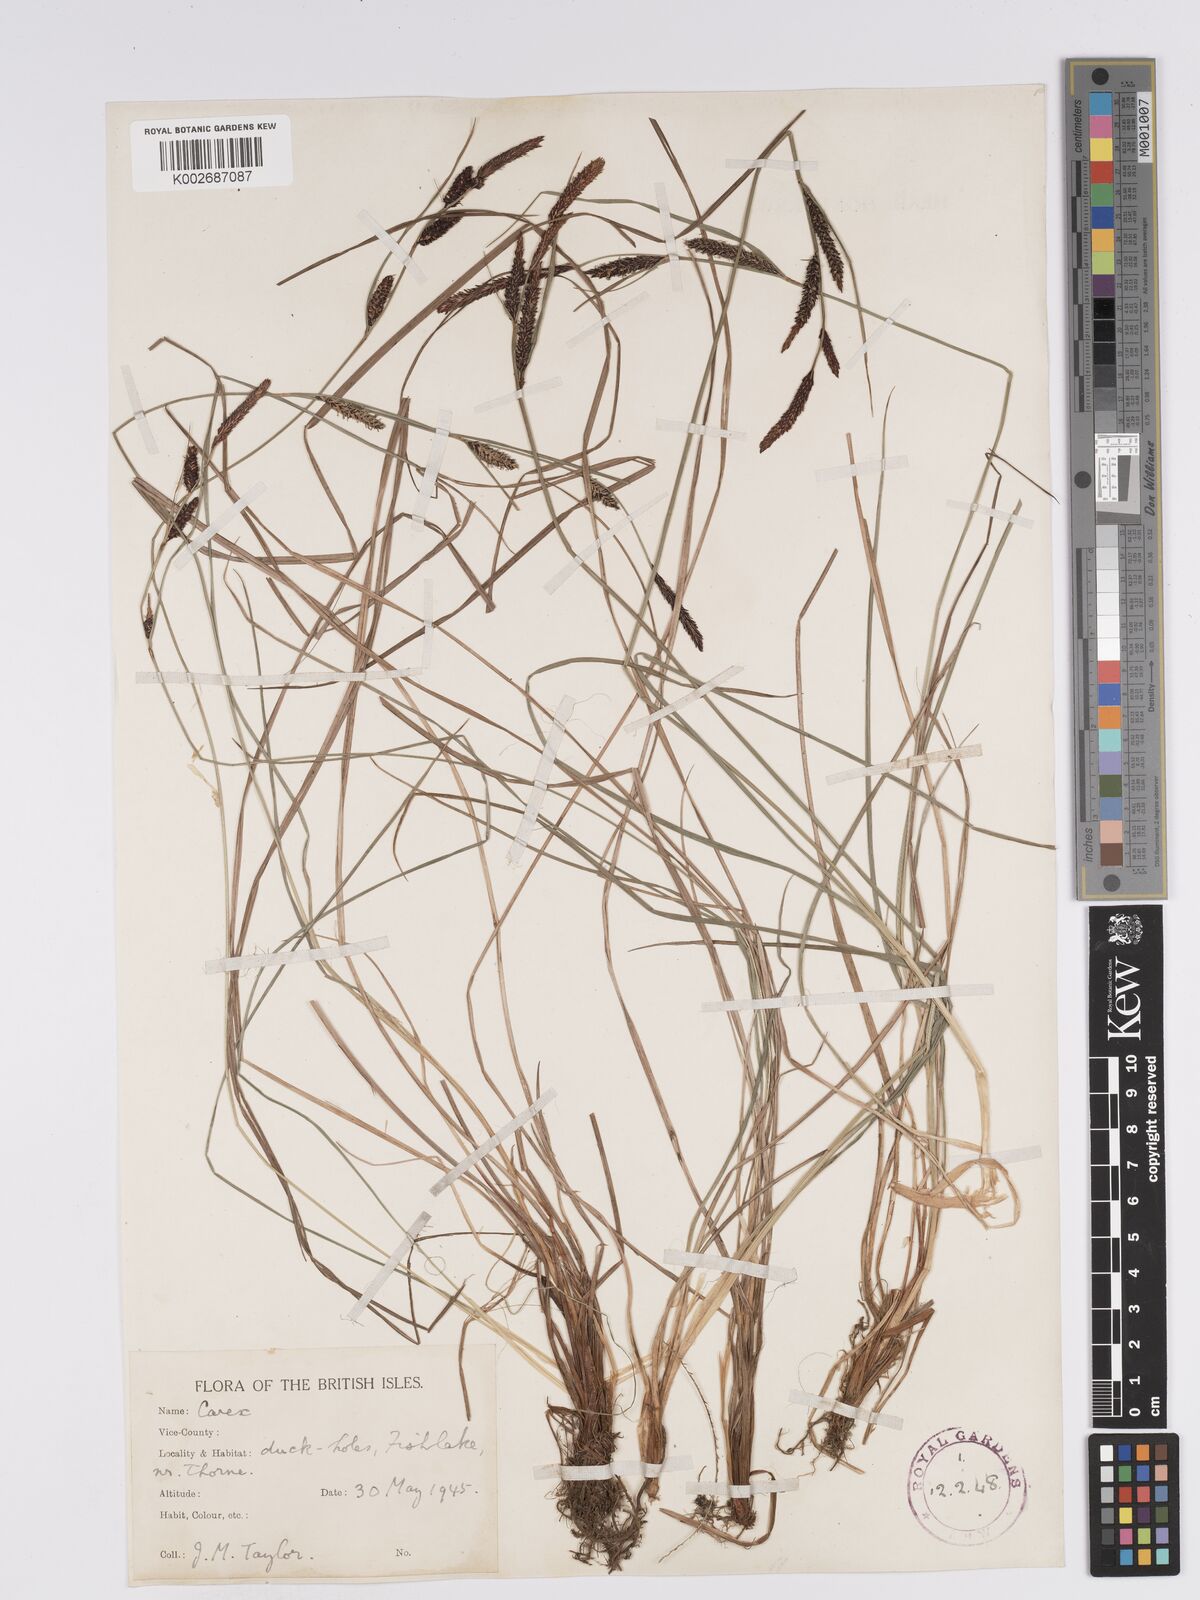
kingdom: Plantae
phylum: Tracheophyta
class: Liliopsida
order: Poales
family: Cyperaceae
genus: Carex
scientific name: Carex nigra
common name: Common sedge
